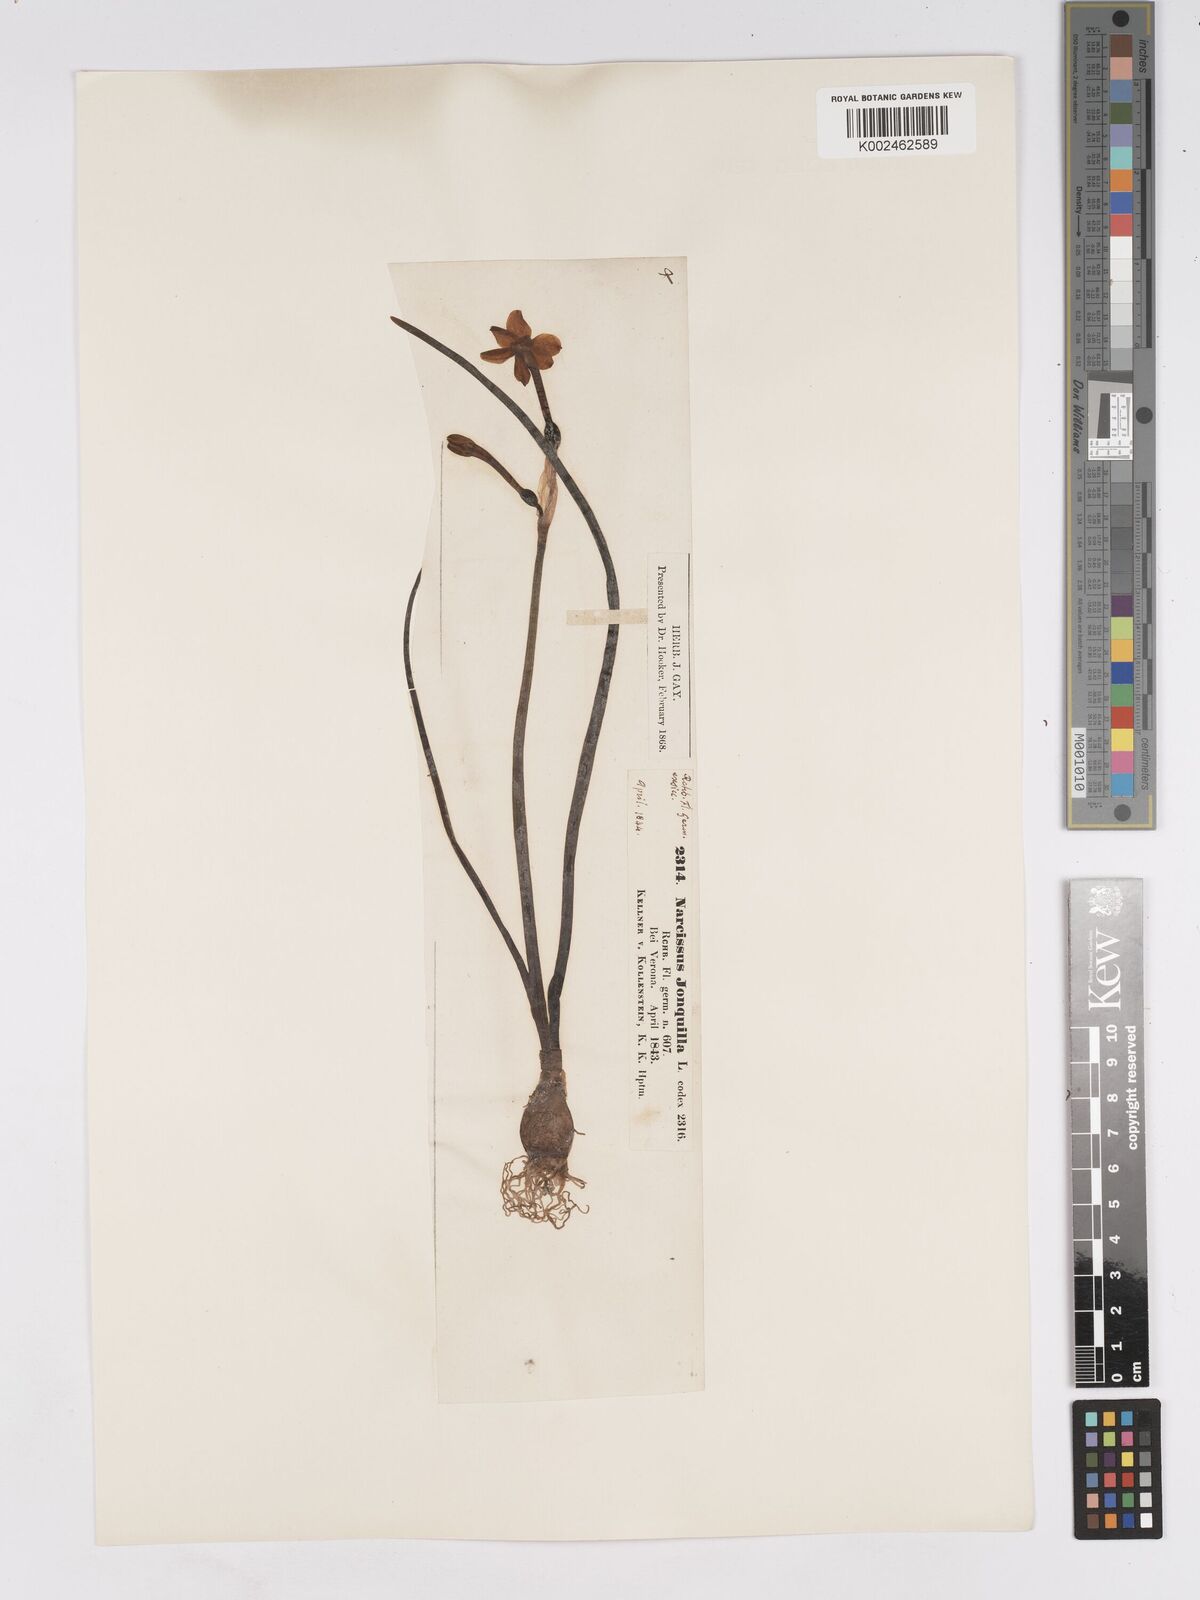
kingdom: Plantae
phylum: Tracheophyta
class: Liliopsida
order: Asparagales
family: Amaryllidaceae
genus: Narcissus
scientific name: Narcissus jonquilla
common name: Jonquil
